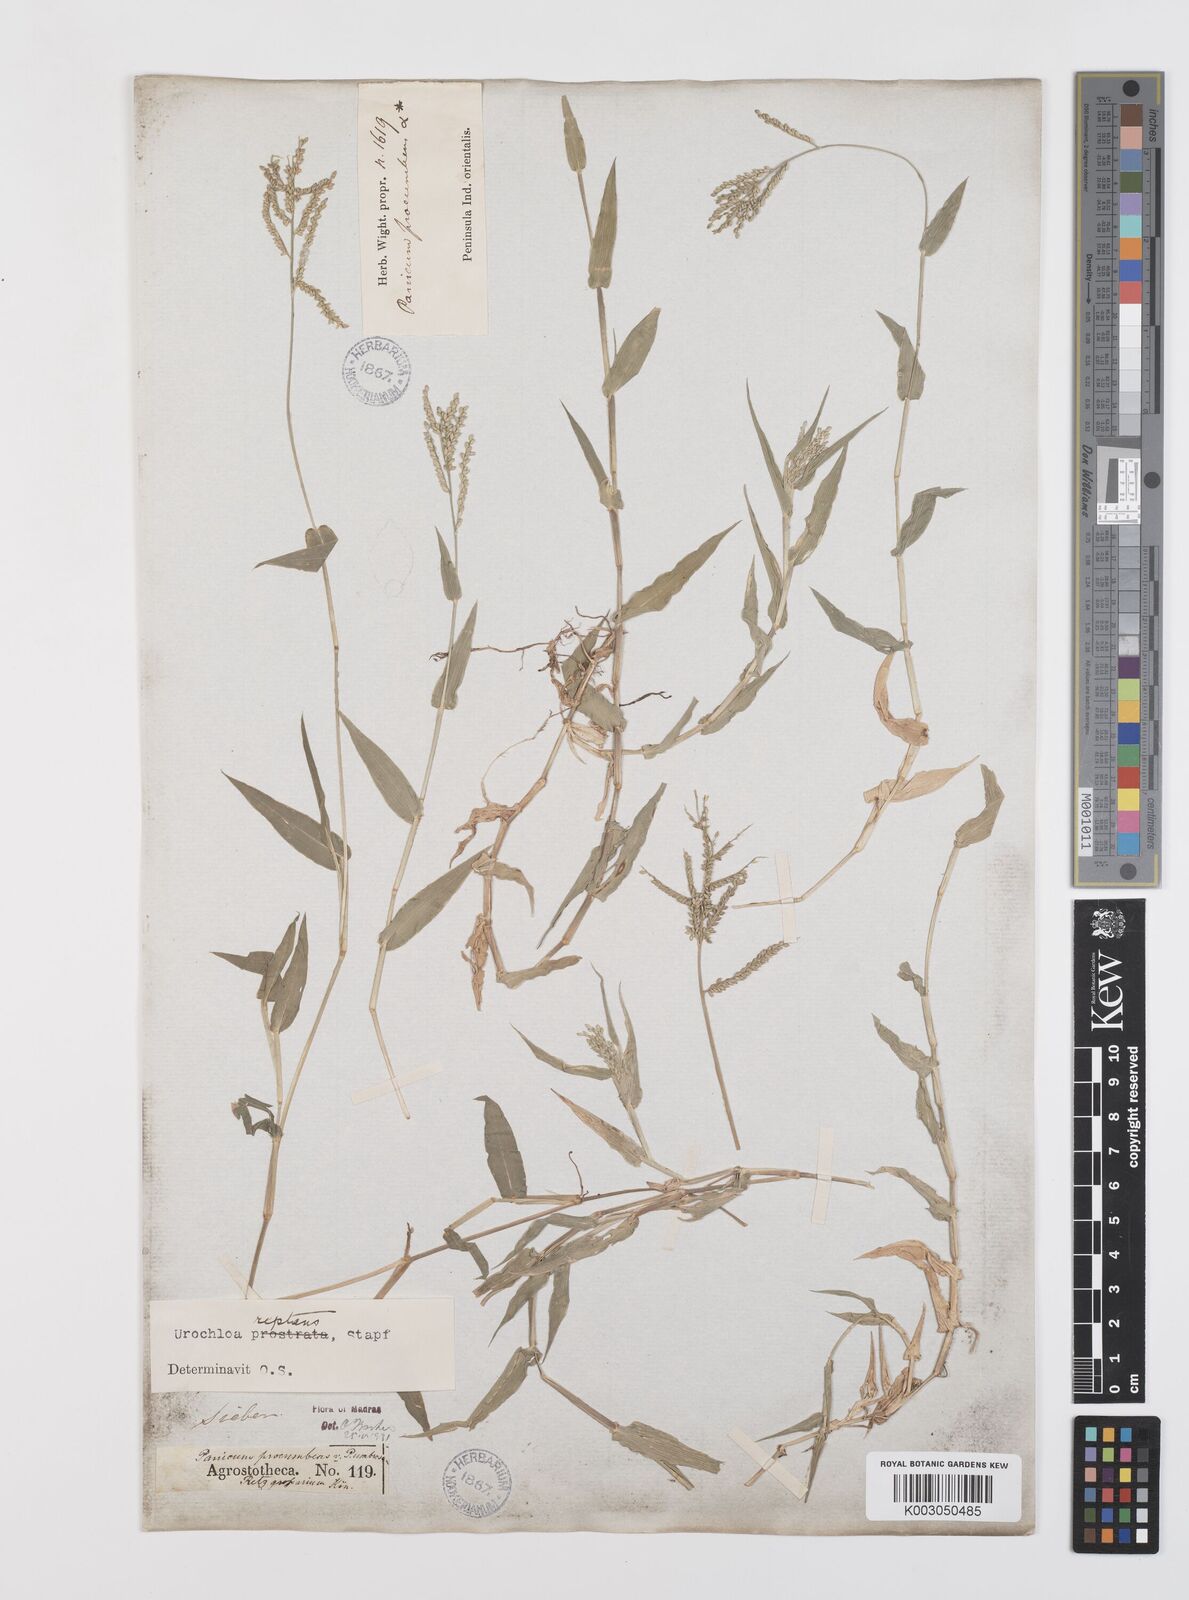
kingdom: Plantae
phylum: Tracheophyta
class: Liliopsida
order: Poales
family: Poaceae
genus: Urochloa
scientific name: Urochloa reptans
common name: Sprawling signalgrass
